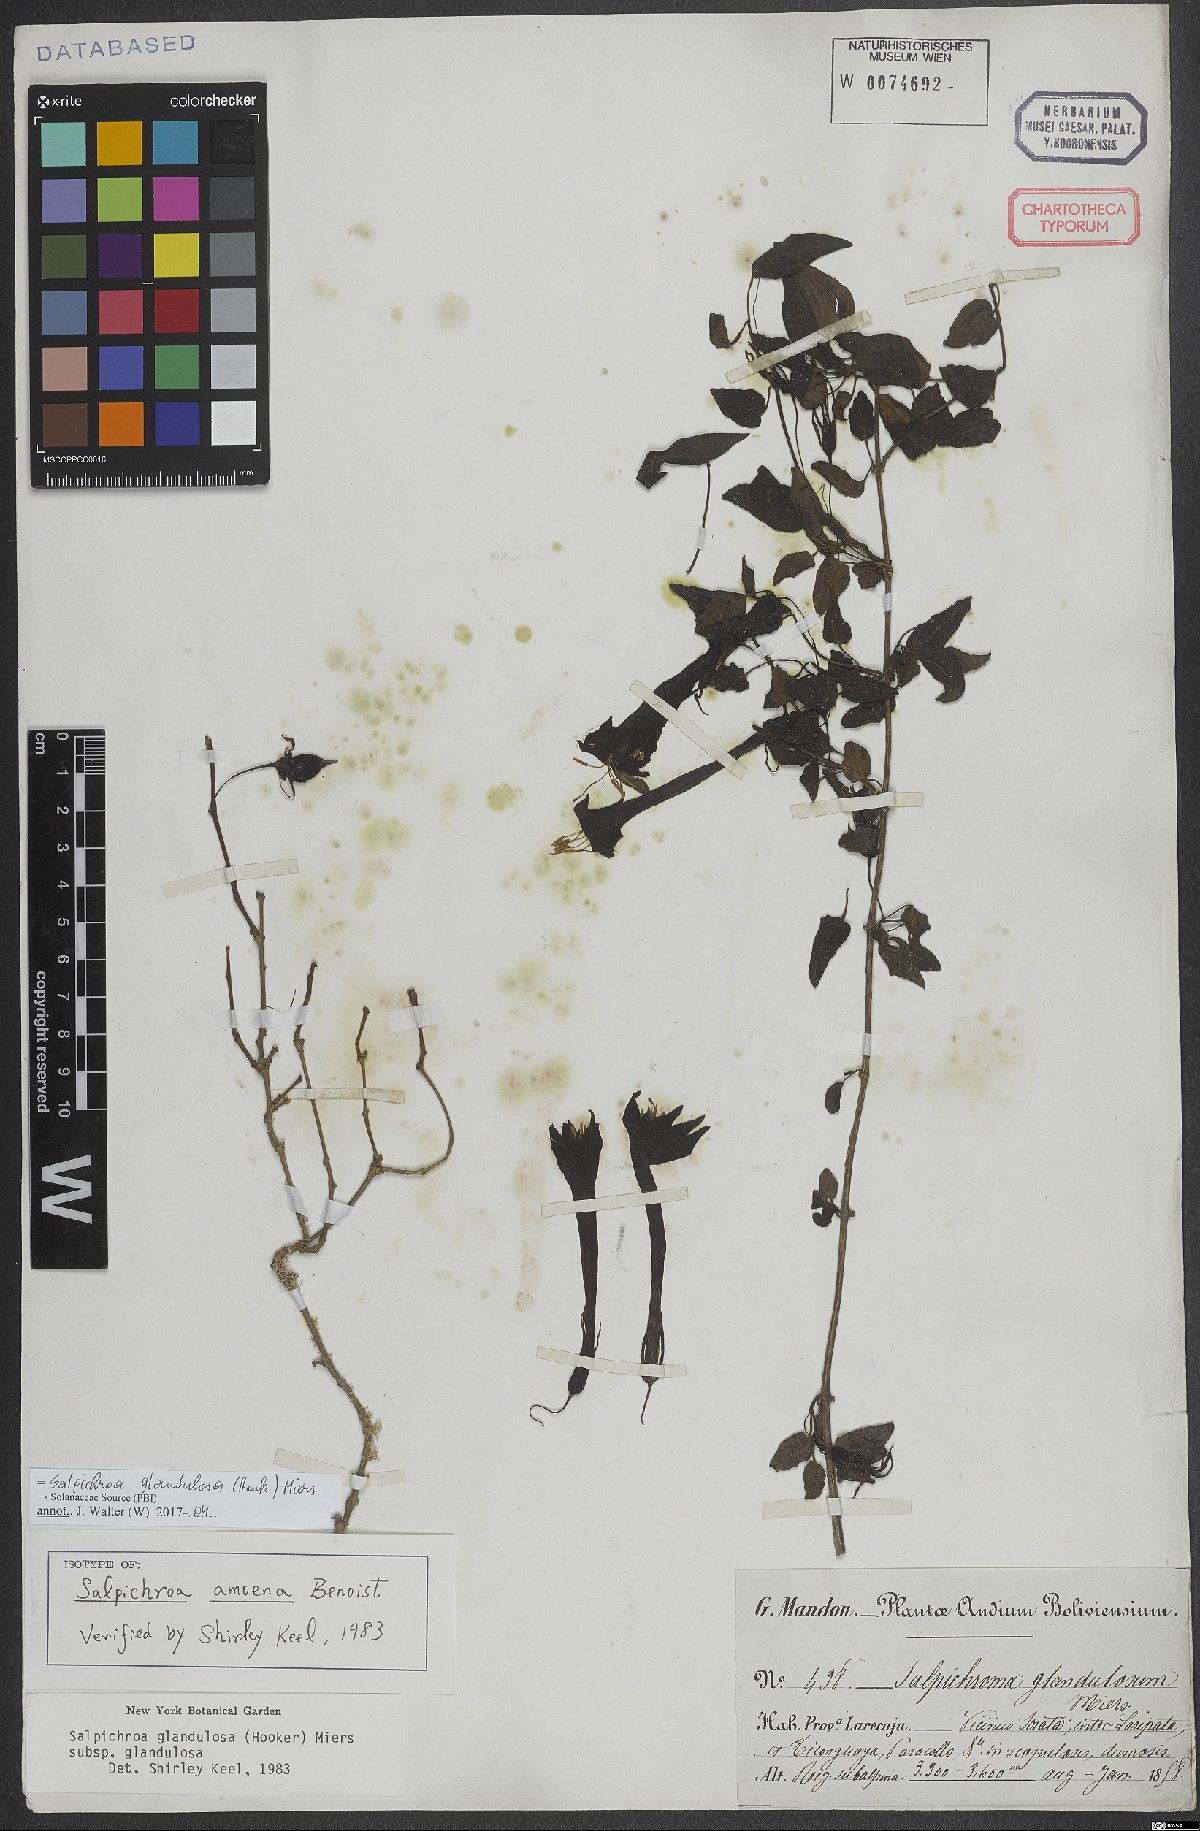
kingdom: Plantae
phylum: Tracheophyta
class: Magnoliopsida
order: Solanales
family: Solanaceae
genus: Salpichroa
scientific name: Salpichroa glandulosa
